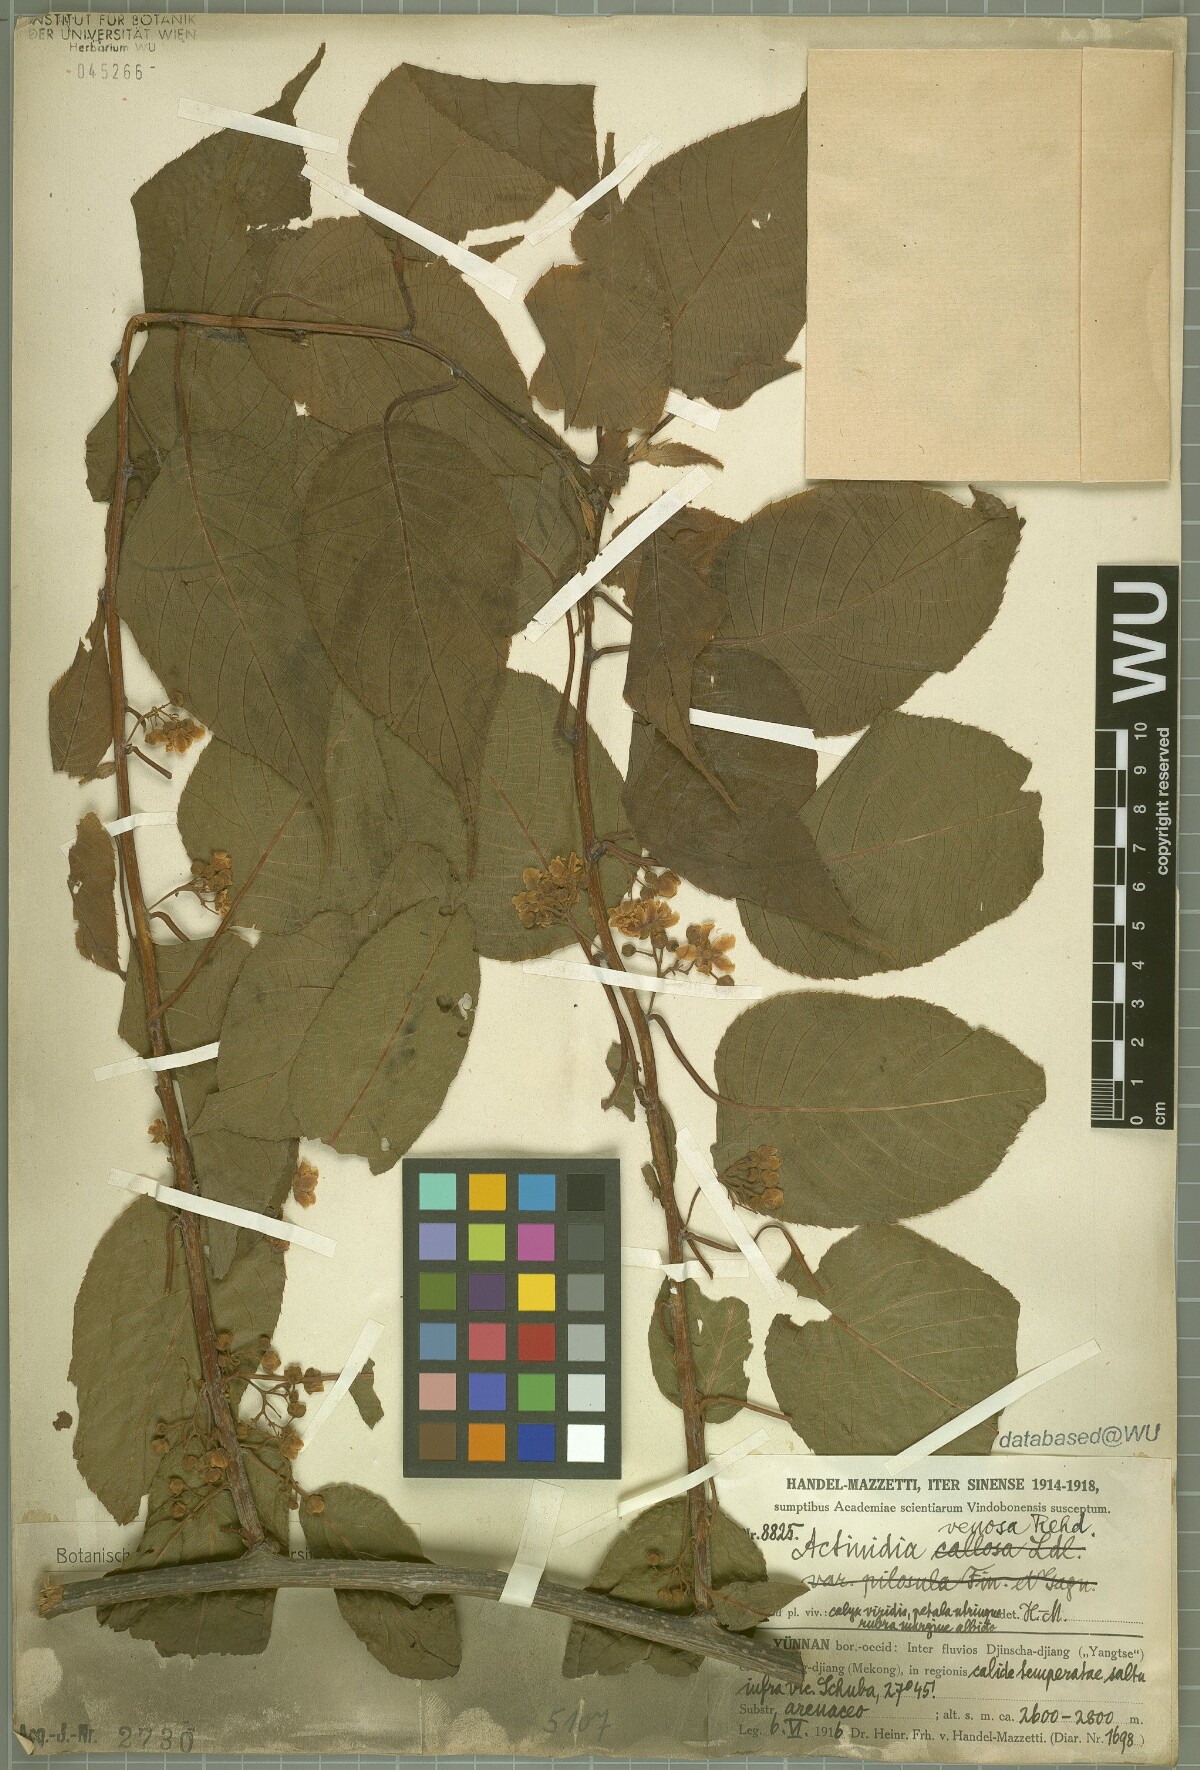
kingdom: Plantae
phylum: Tracheophyta
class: Magnoliopsida
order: Ericales
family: Actinidiaceae
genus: Actinidia
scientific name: Actinidia venosa
